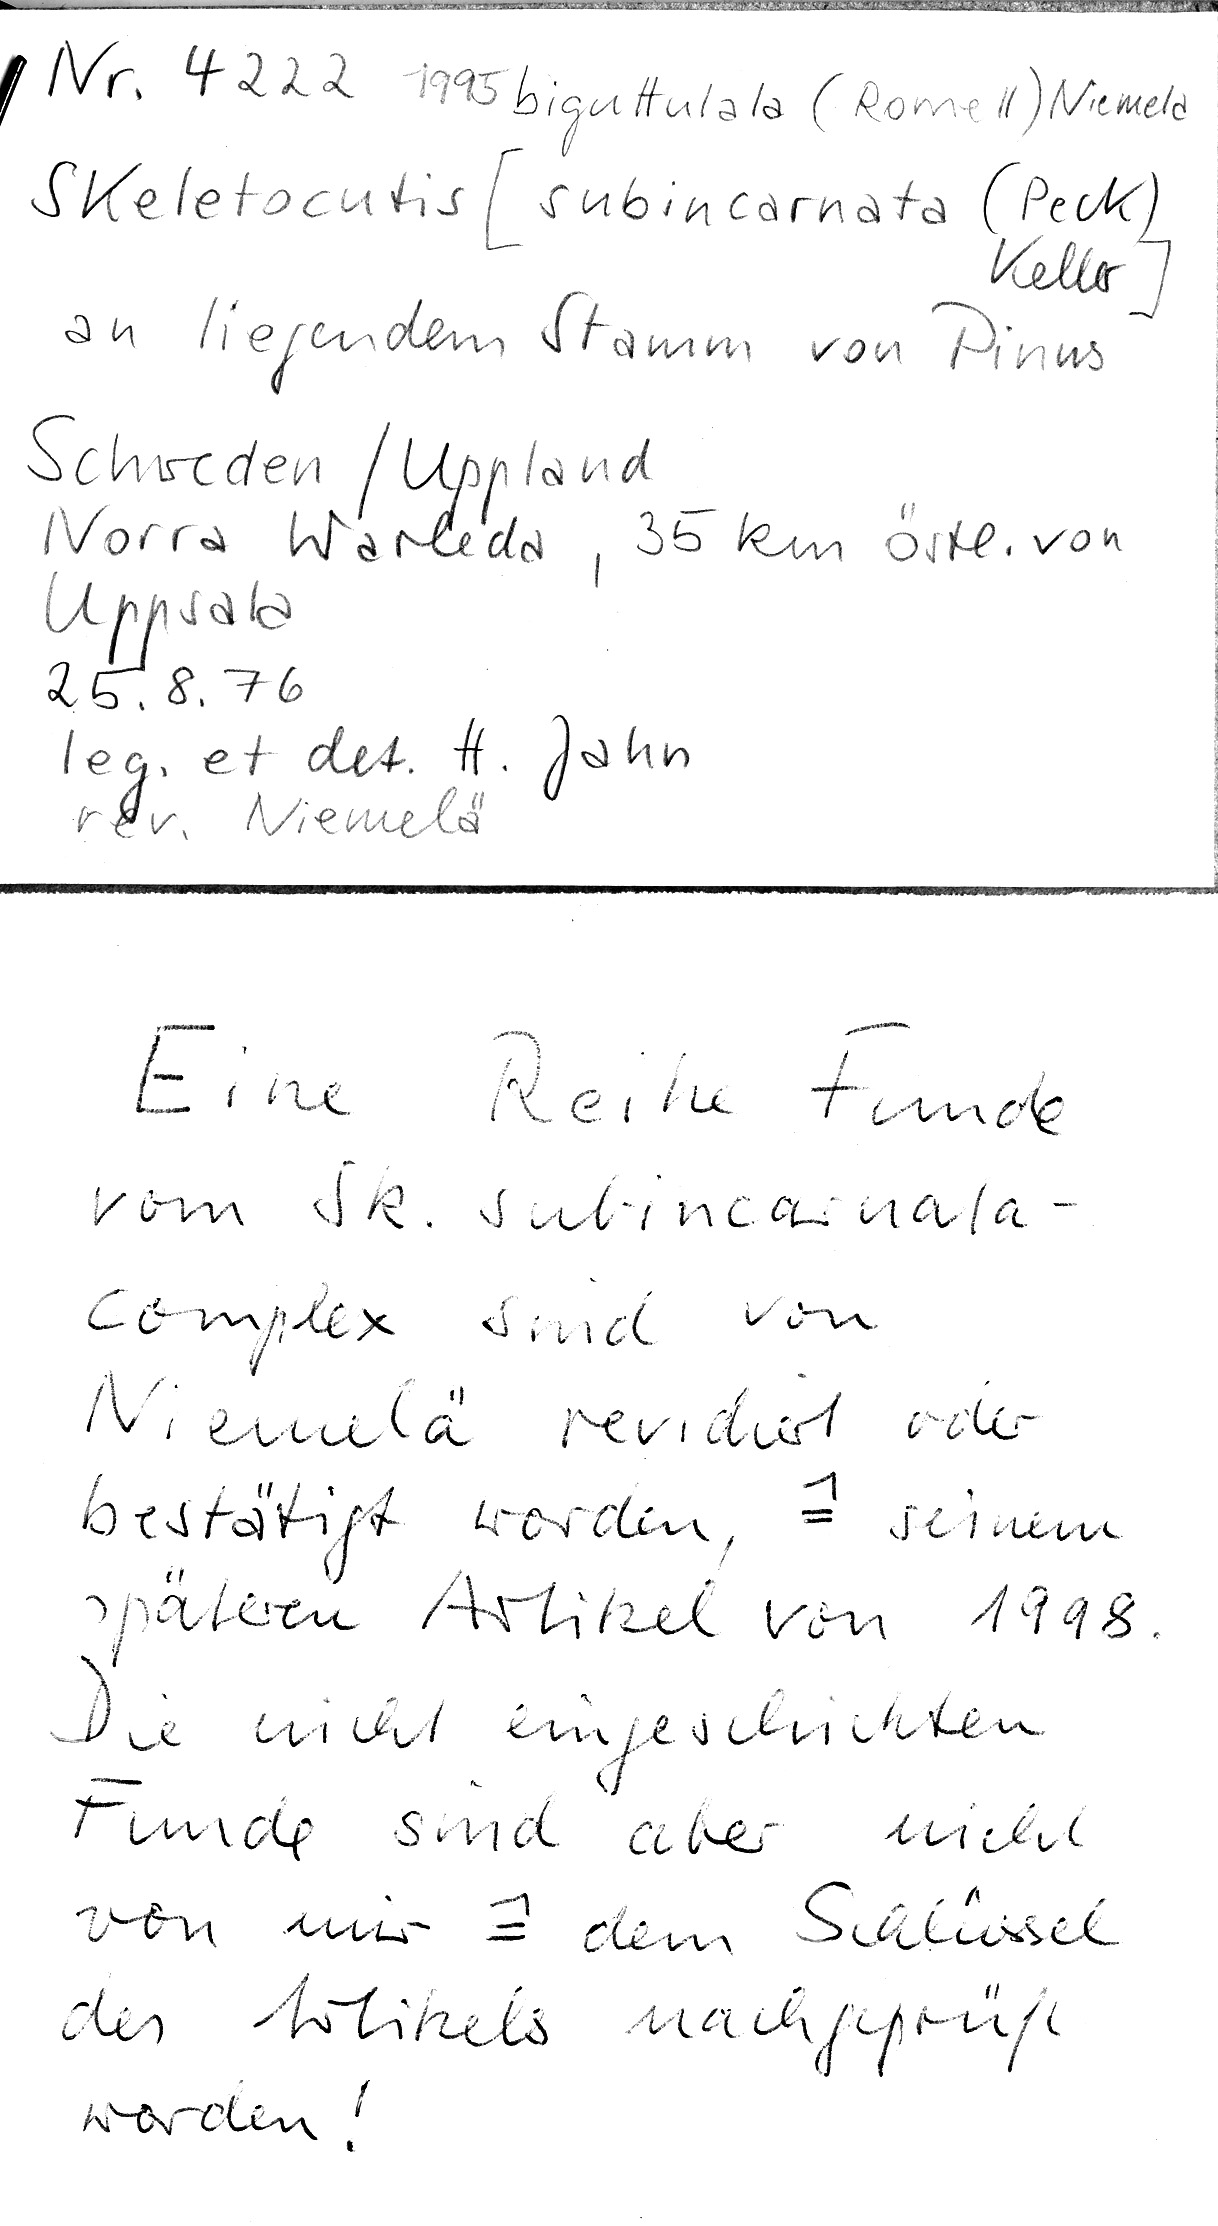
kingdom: Plantae
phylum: Tracheophyta
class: Pinopsida
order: Pinales
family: Pinaceae
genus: Pinus
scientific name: Pinus
